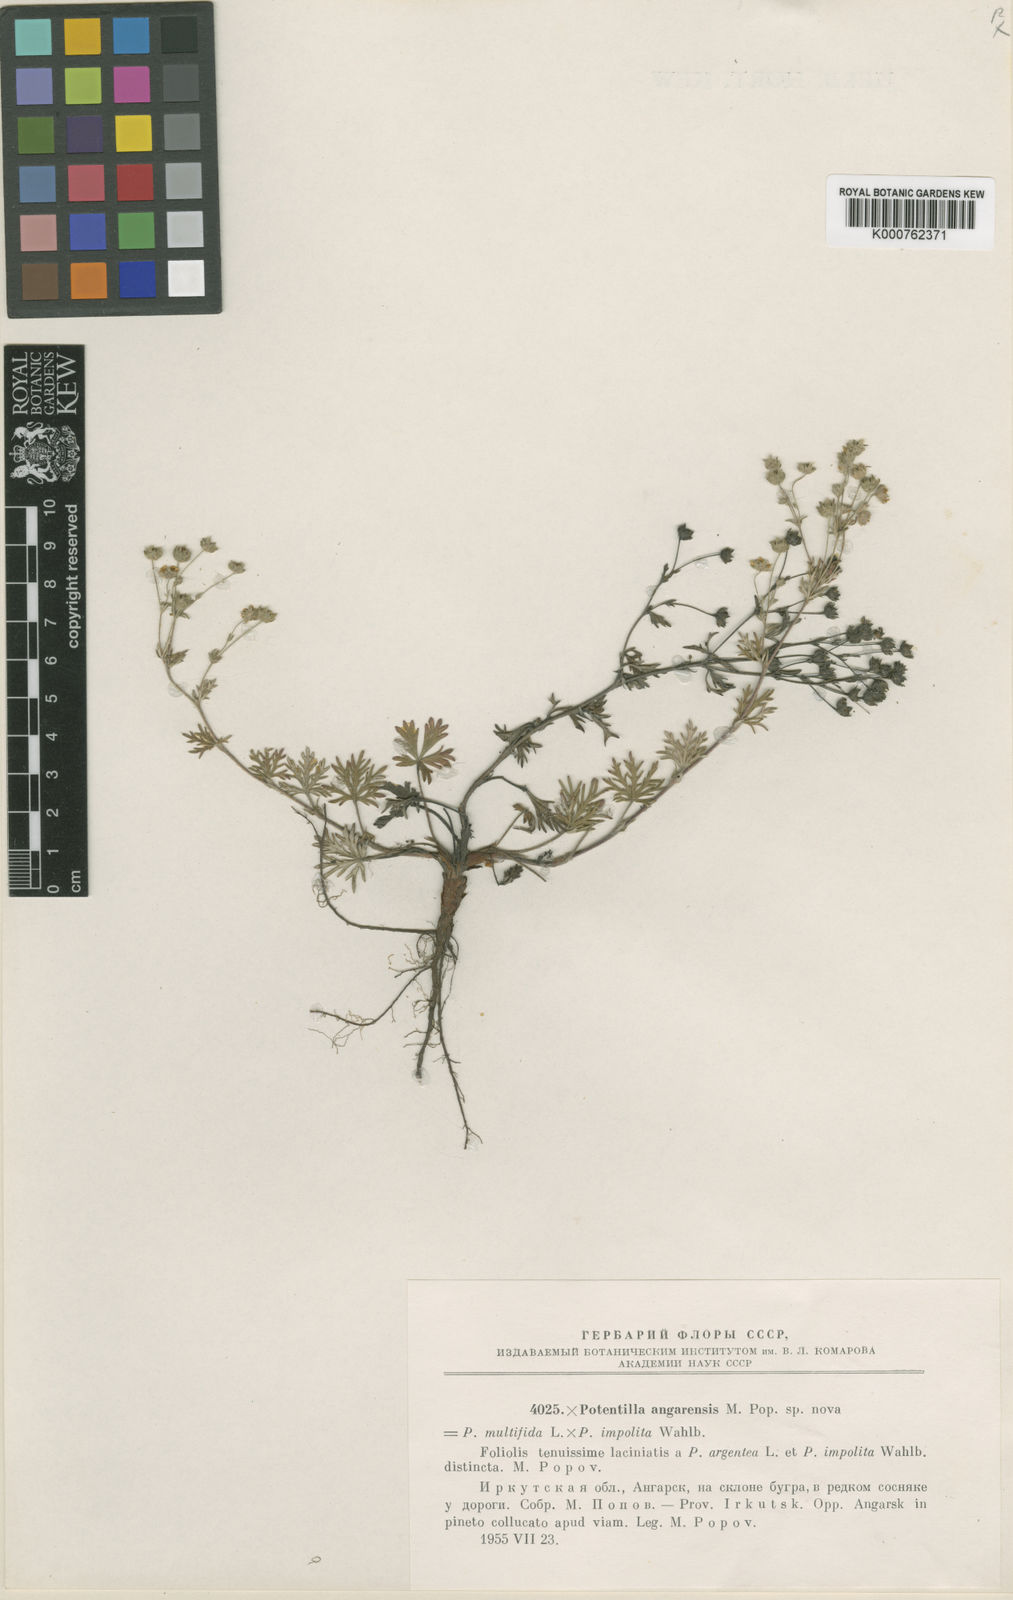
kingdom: Plantae
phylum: Tracheophyta
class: Magnoliopsida
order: Rosales
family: Rosaceae
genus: Potentilla
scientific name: Potentilla
